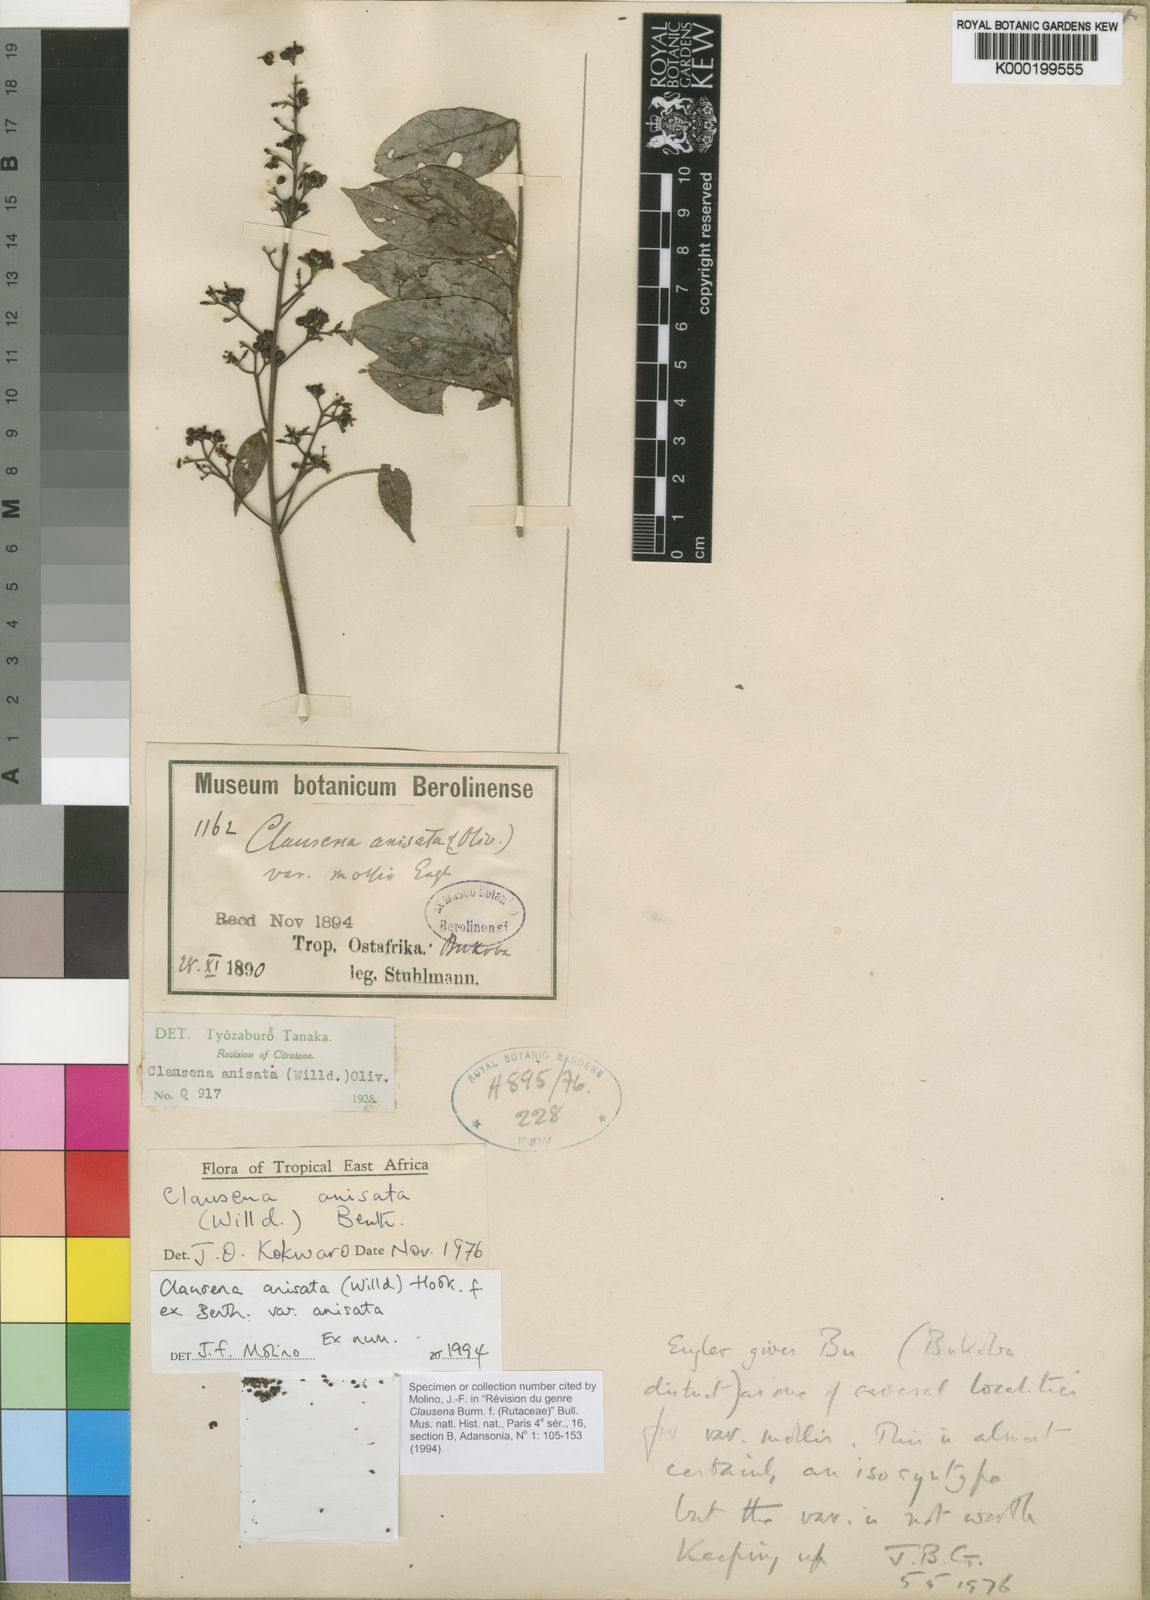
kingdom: Plantae
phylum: Tracheophyta
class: Magnoliopsida
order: Sapindales
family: Rutaceae
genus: Clausena
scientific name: Clausena anisata
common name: Horsewood
